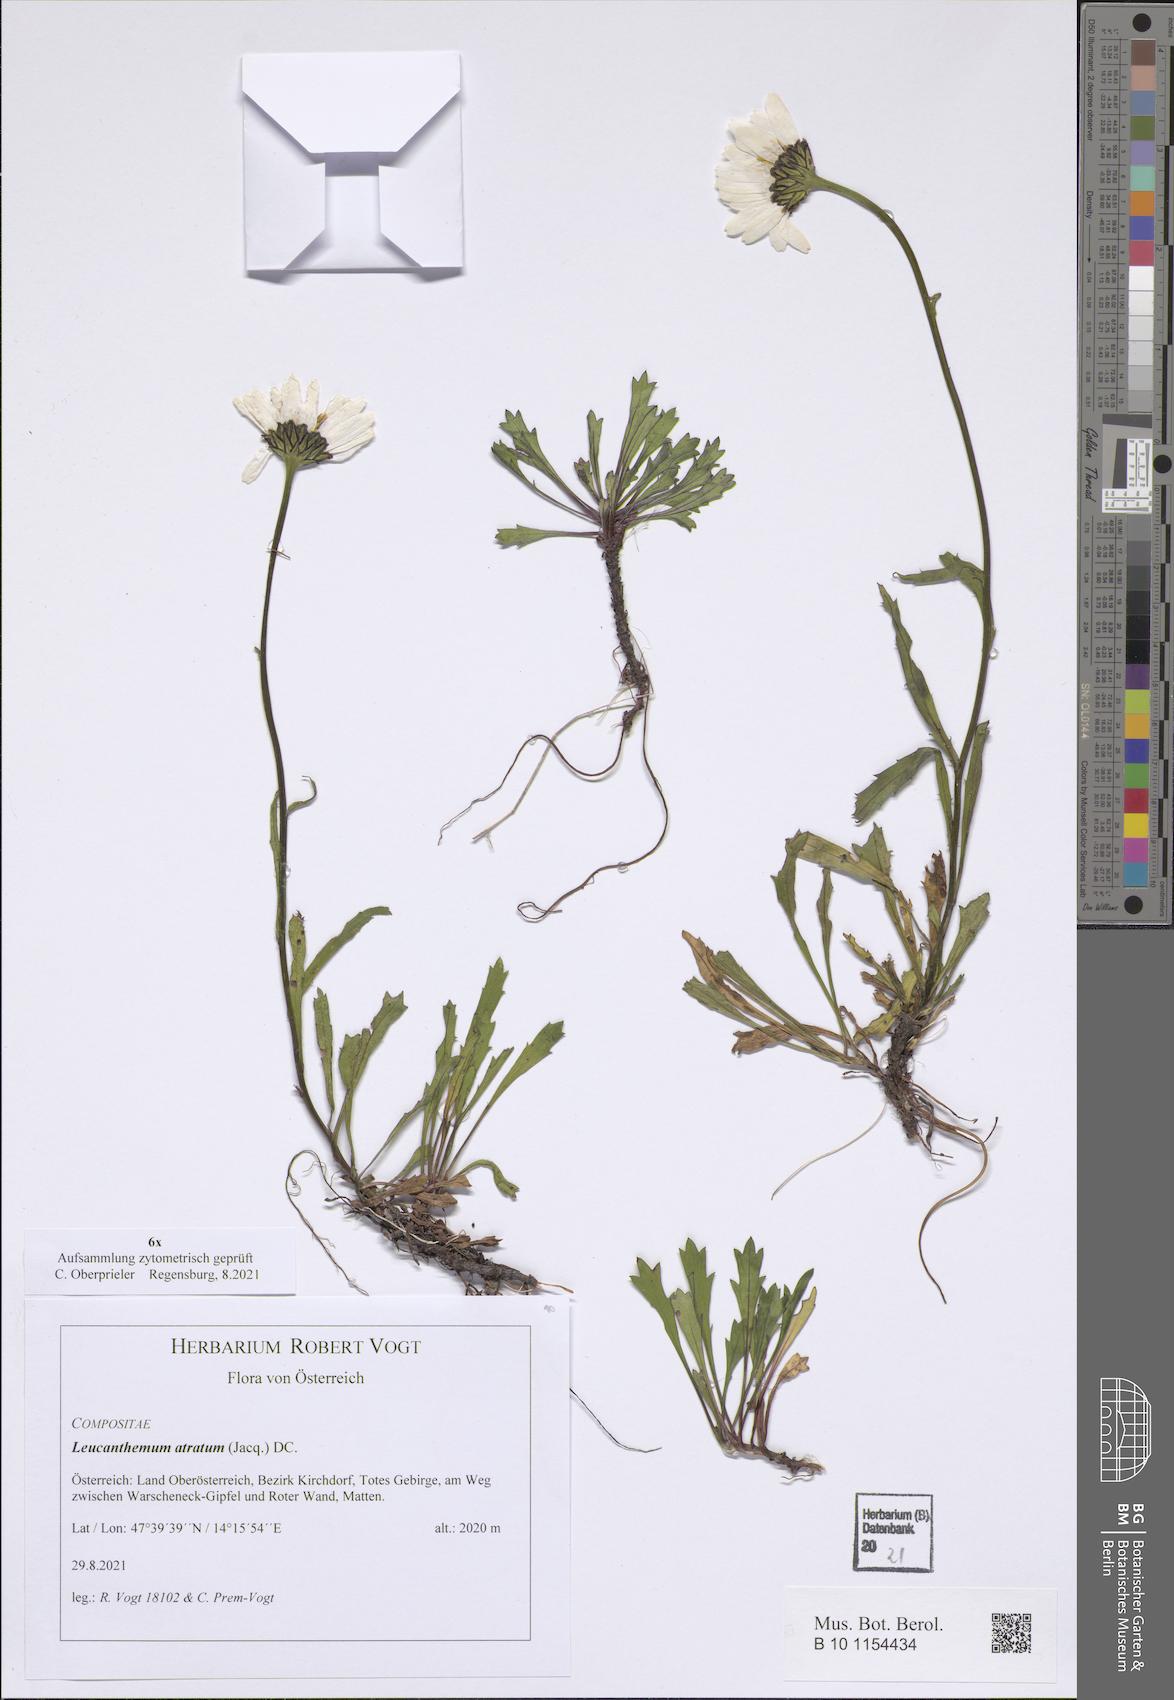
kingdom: Plantae
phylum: Tracheophyta
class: Magnoliopsida
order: Asterales
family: Asteraceae
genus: Leucanthemum
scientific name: Leucanthemum atratum
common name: Saw-leaved moon-daisy
